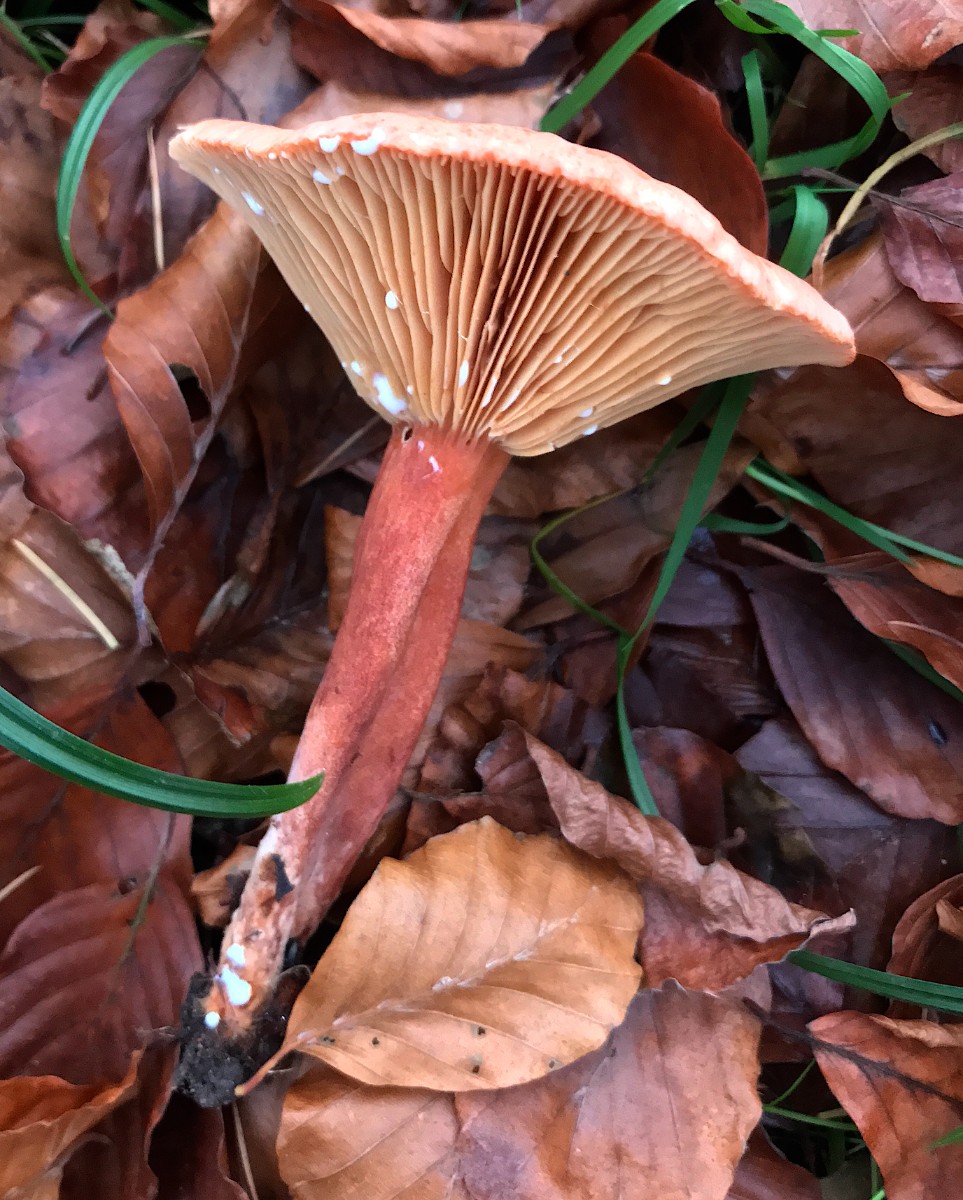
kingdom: Fungi
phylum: Basidiomycota
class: Agaricomycetes
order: Russulales
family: Russulaceae
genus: Lactarius
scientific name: Lactarius fulvissimus
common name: ræve-mælkehat
